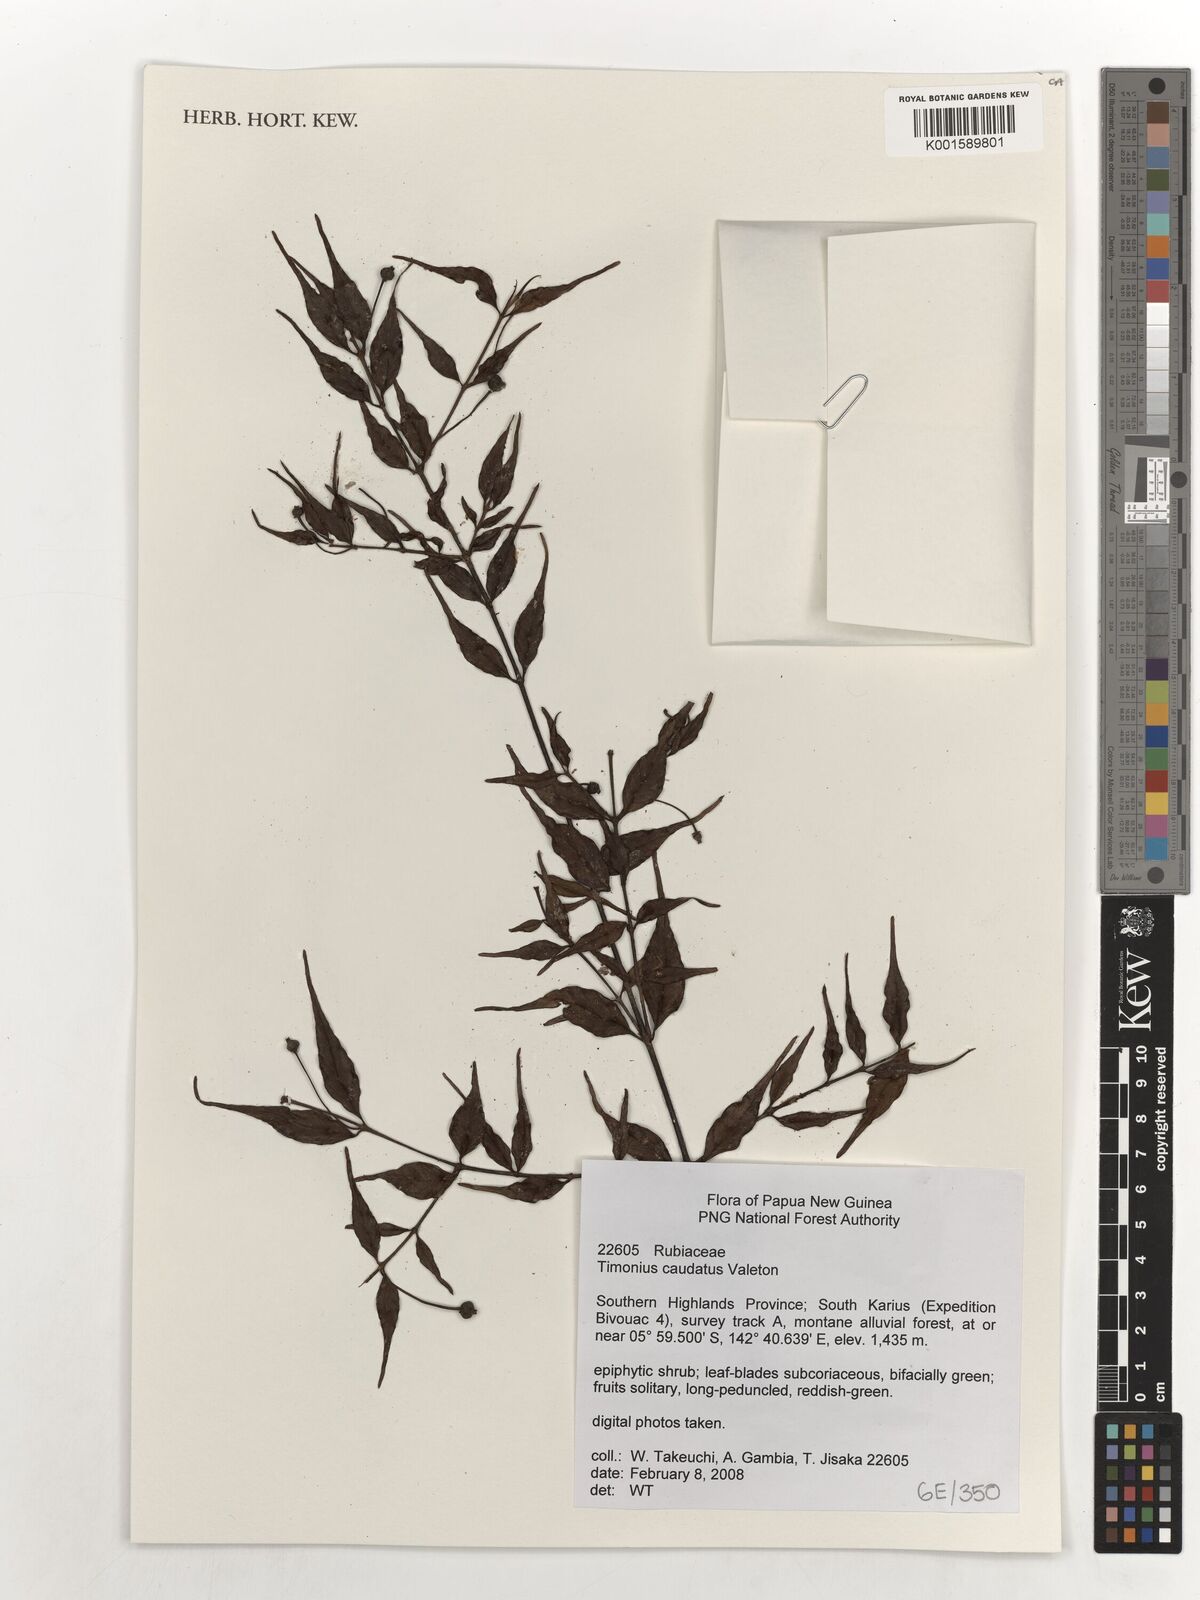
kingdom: Plantae
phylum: Tracheophyta
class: Magnoliopsida
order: Gentianales
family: Rubiaceae
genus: Timonius
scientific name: Timonius caudatus
